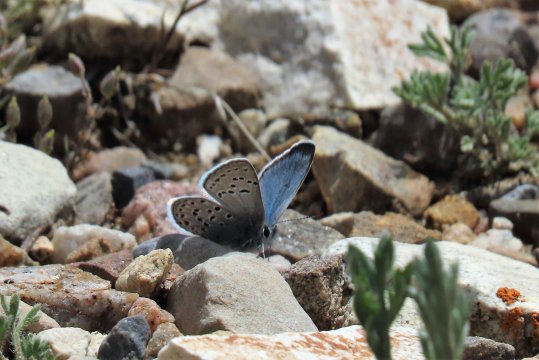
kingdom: Animalia
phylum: Arthropoda
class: Insecta
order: Lepidoptera
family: Lycaenidae
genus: Plebejus
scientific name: Plebejus saepiolus
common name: Greenish Blue
